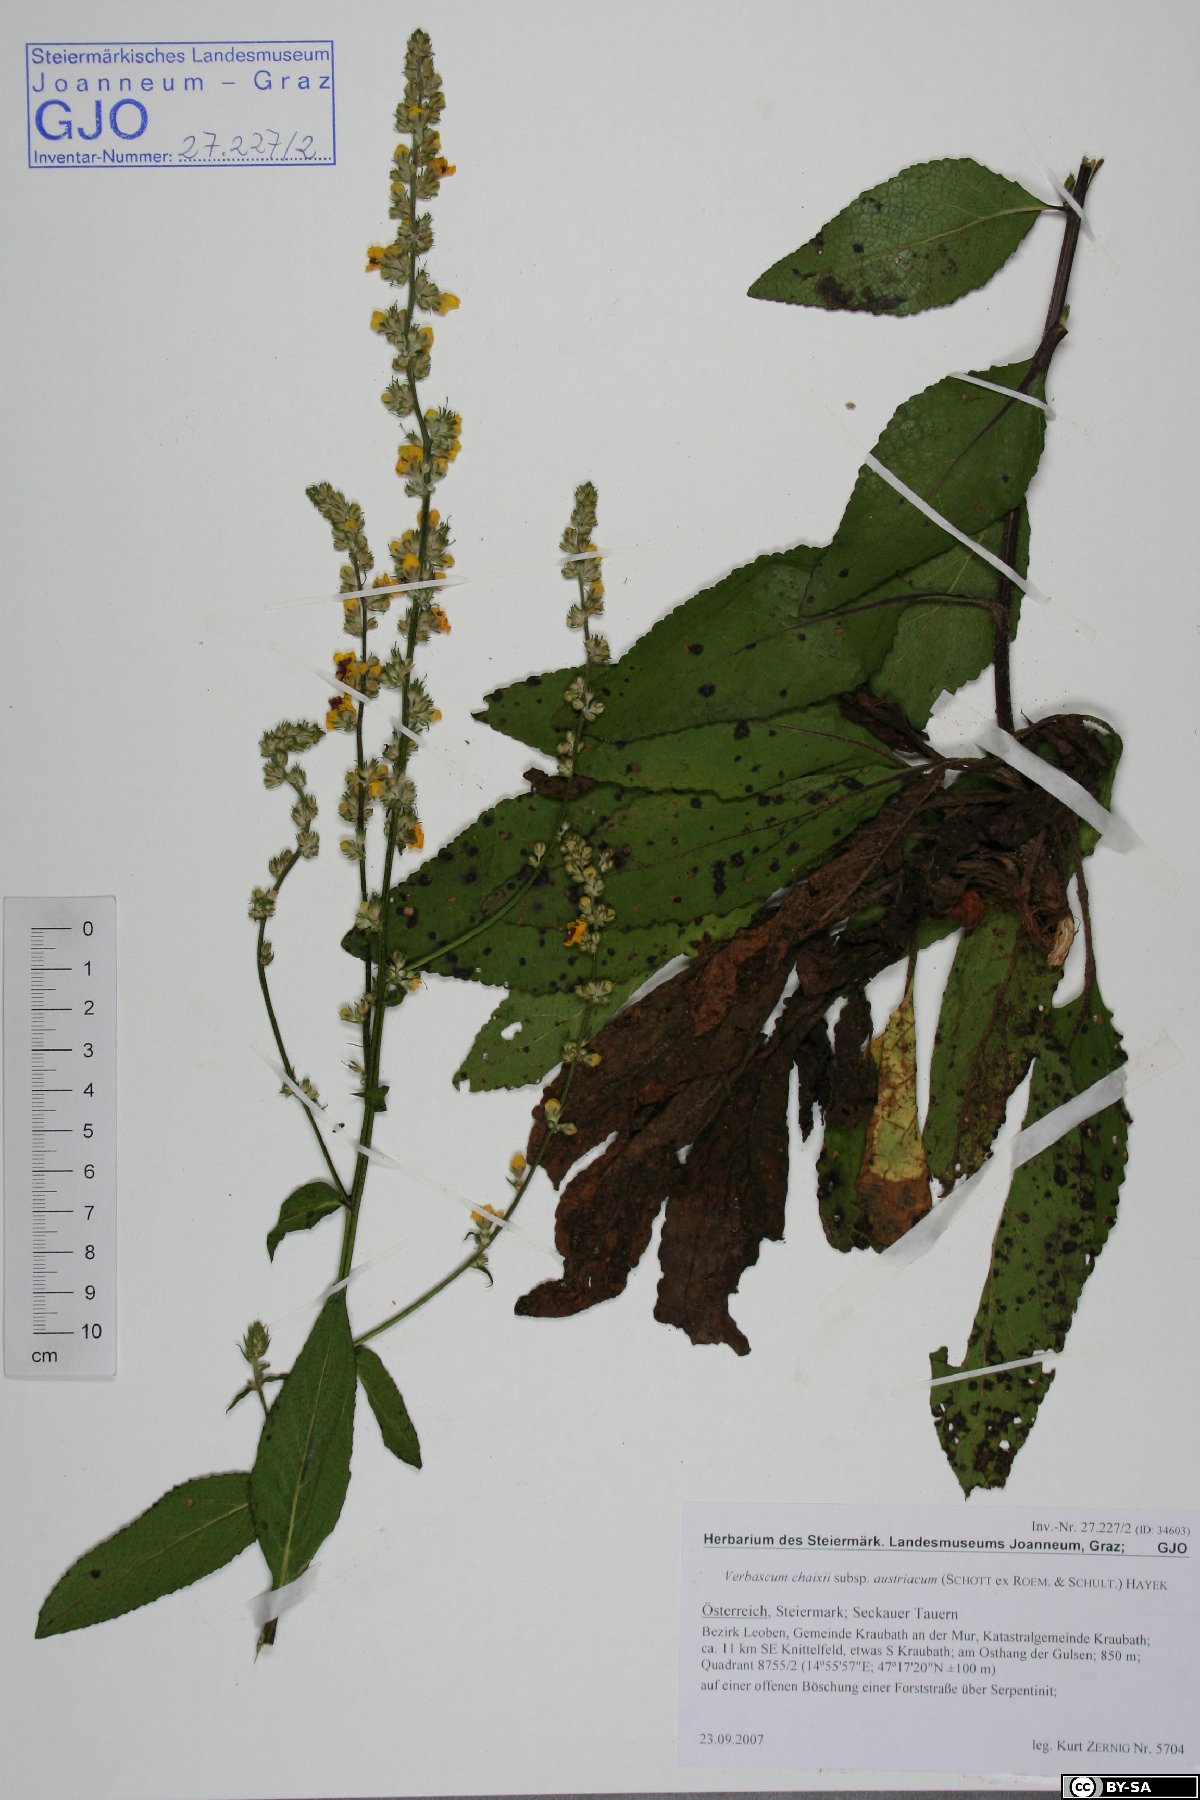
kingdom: Plantae
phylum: Tracheophyta
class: Magnoliopsida
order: Lamiales
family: Scrophulariaceae
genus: Verbascum
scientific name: Verbascum chaixii
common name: Nettle-leaved mullein
